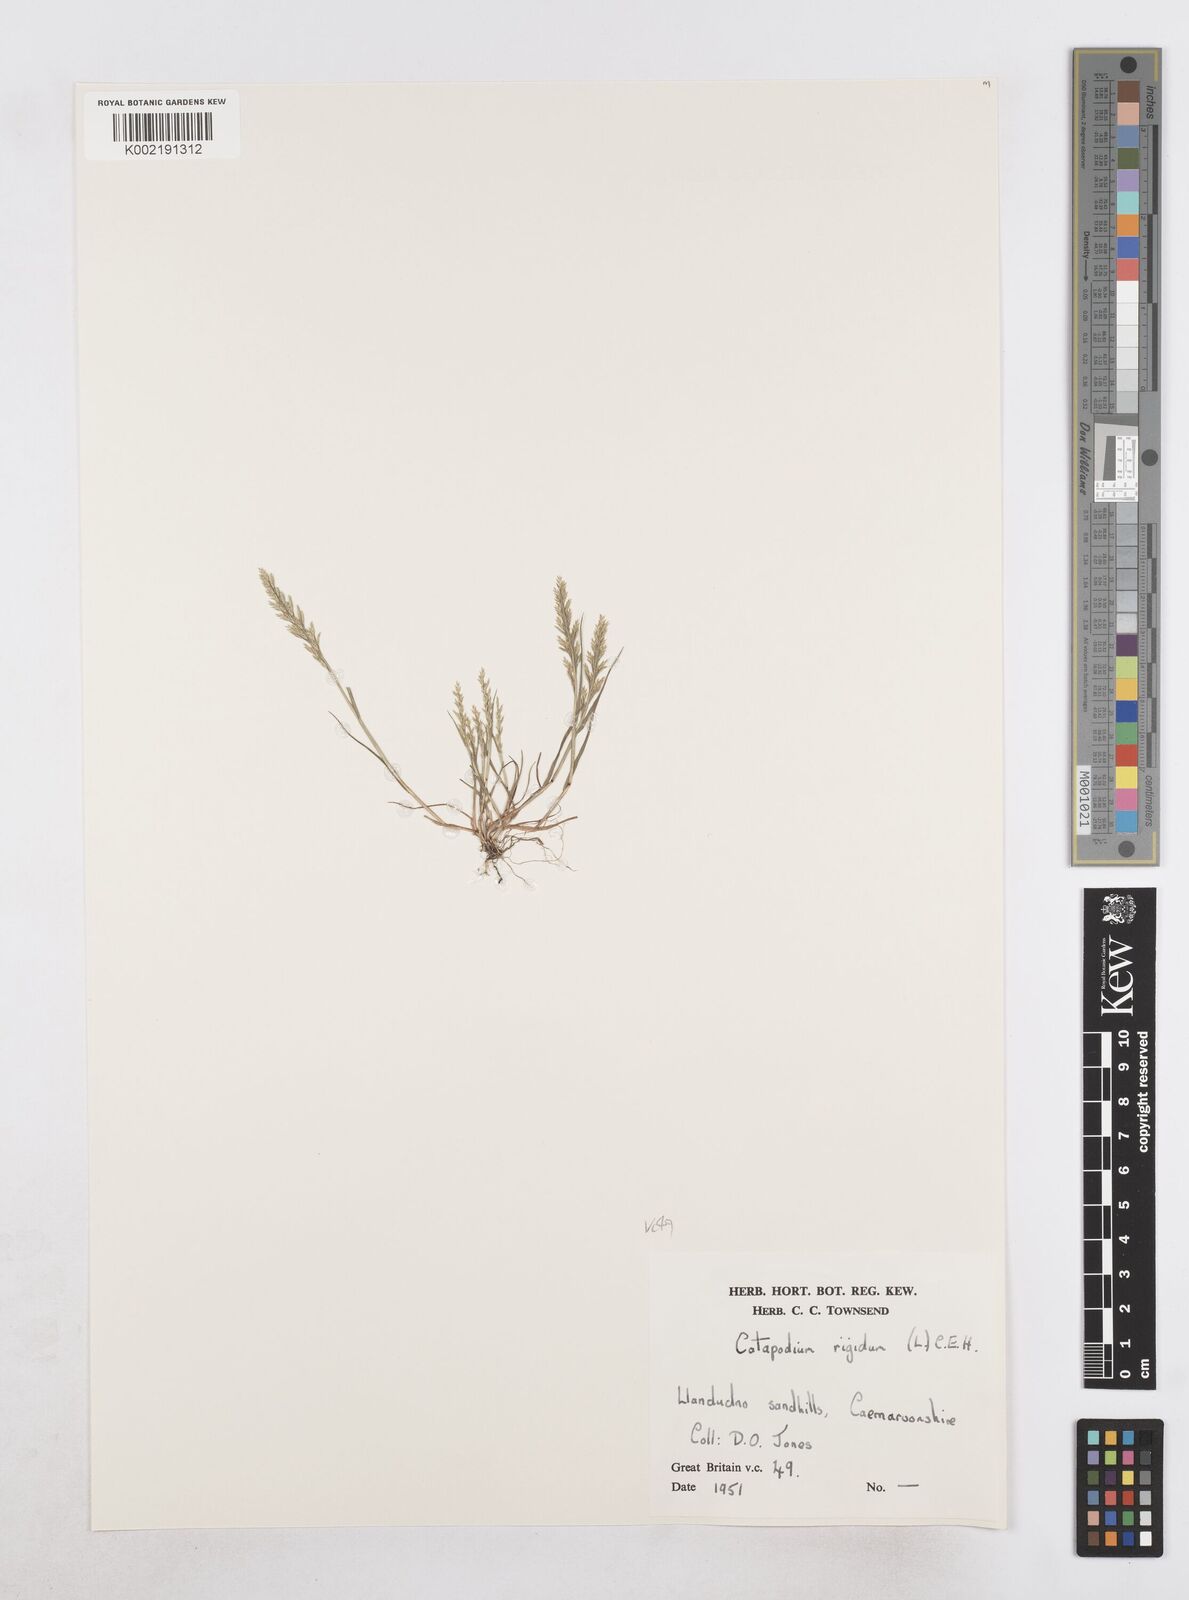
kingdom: Plantae
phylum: Tracheophyta
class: Liliopsida
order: Poales
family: Poaceae
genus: Catapodium
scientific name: Catapodium rigidum
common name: Fern-grass
